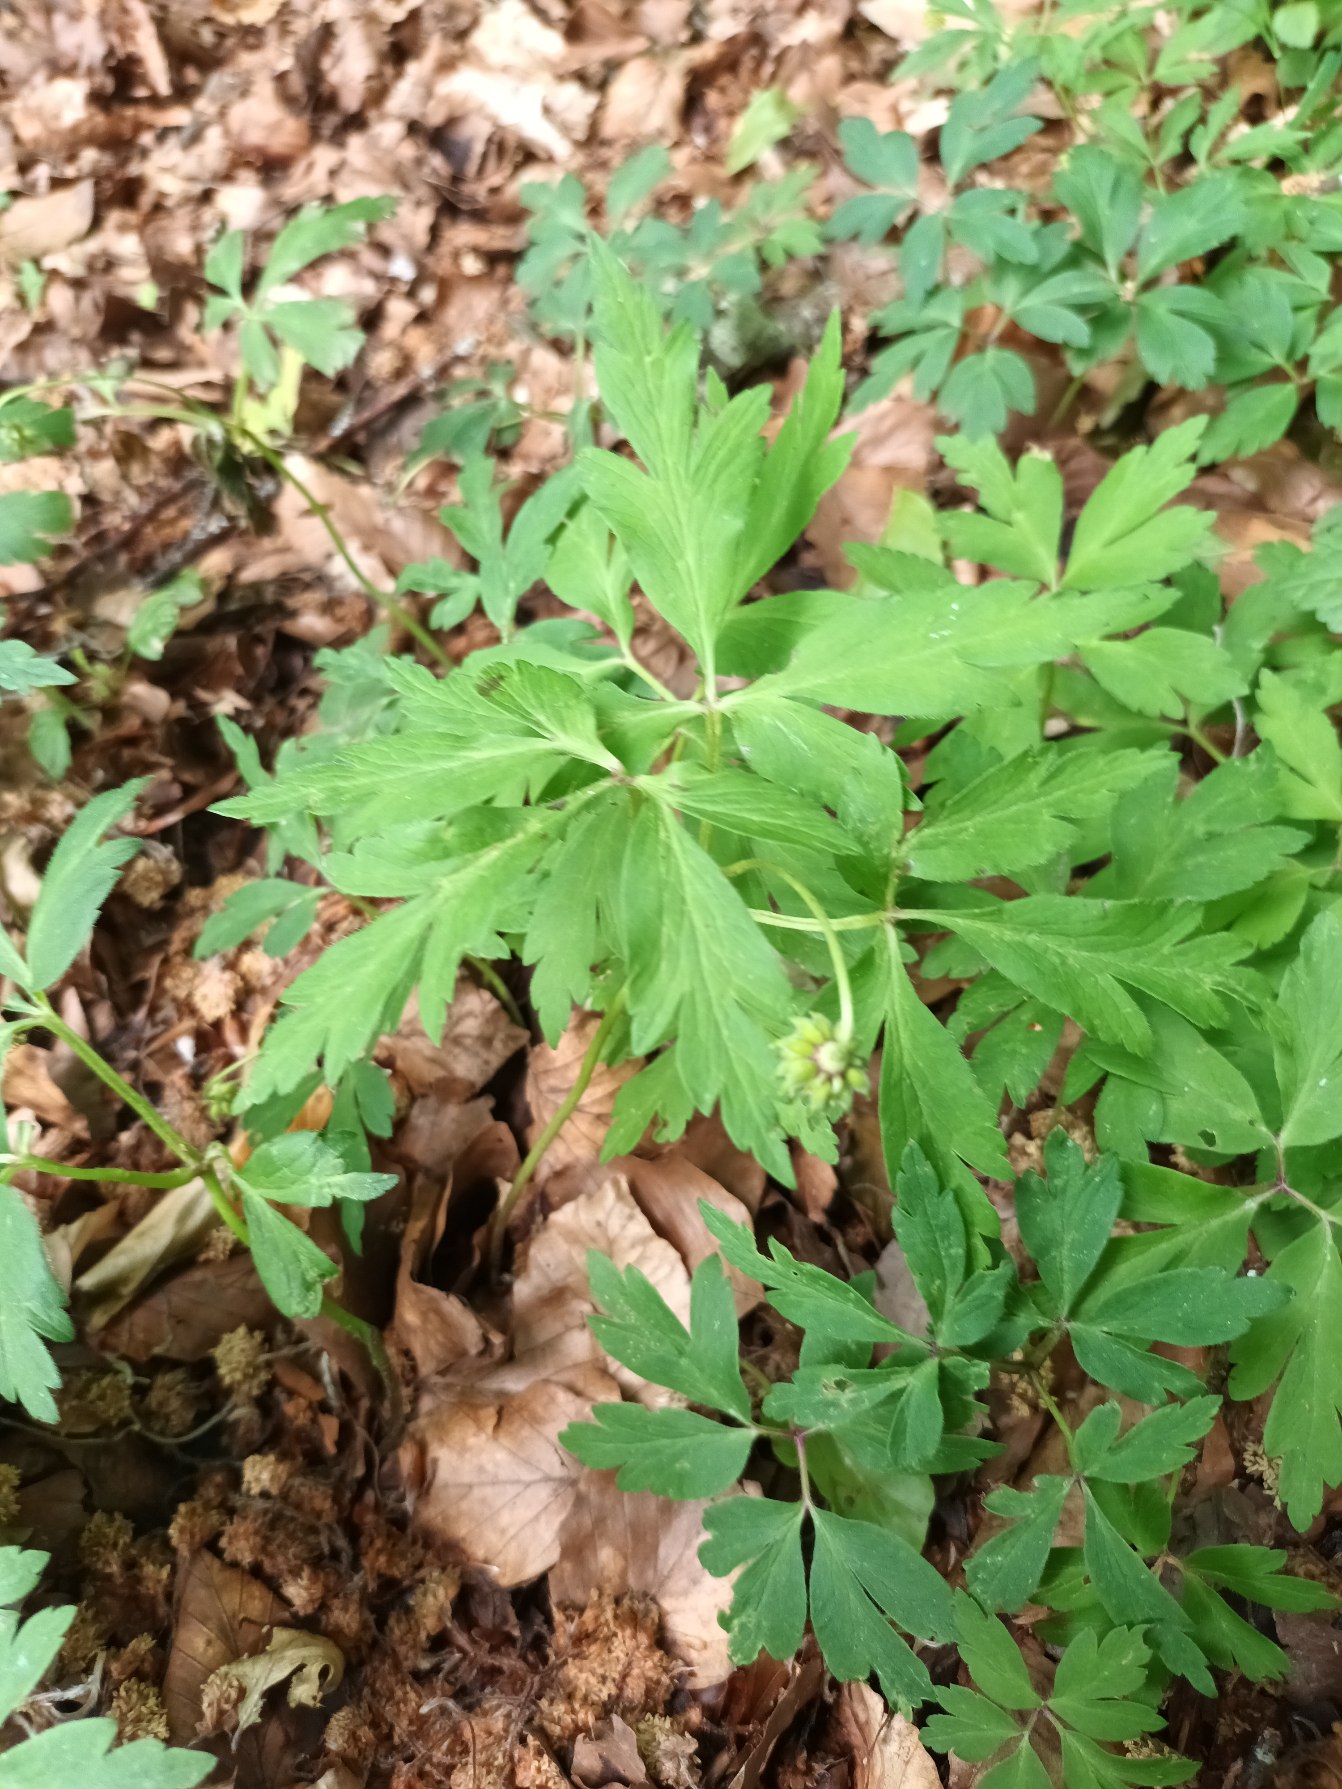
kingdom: Plantae
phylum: Tracheophyta
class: Magnoliopsida
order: Ranunculales
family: Ranunculaceae
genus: Anemone
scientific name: Anemone nemorosa
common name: Hvid anemone
